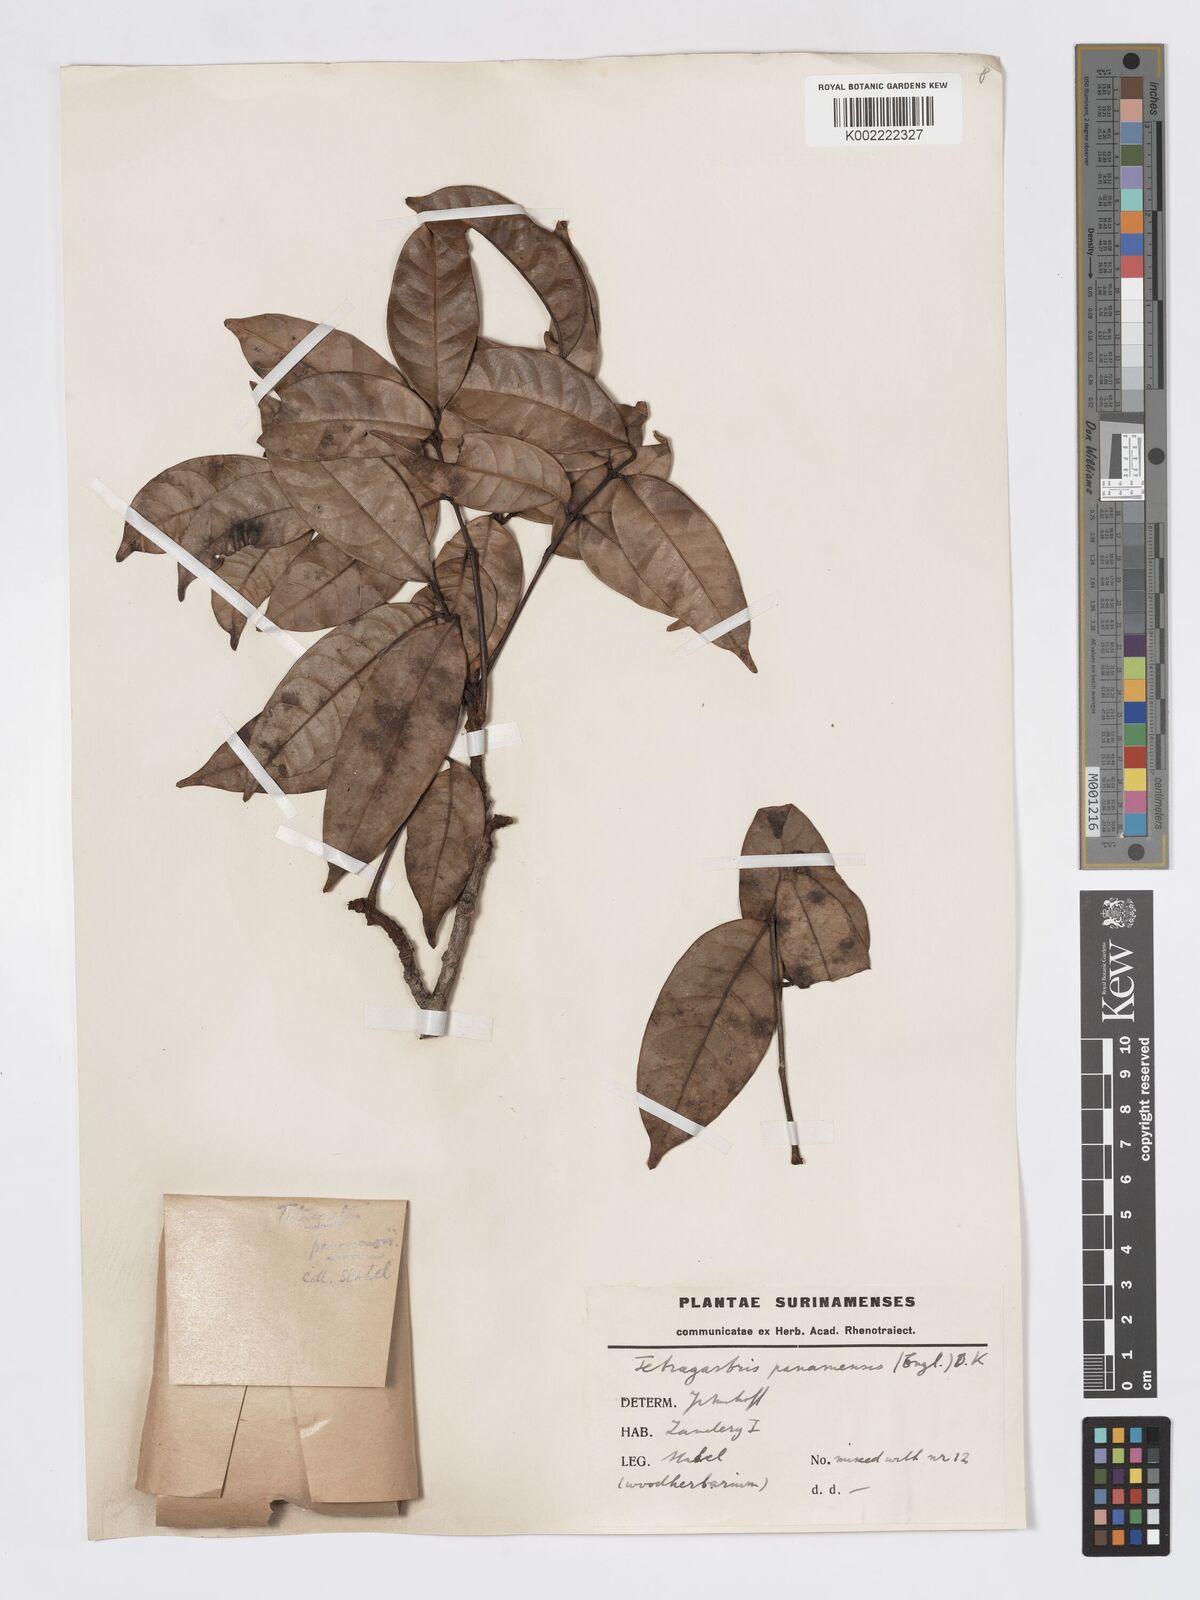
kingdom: Plantae
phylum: Tracheophyta
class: Magnoliopsida
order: Sapindales
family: Burseraceae
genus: Tetragastris
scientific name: Tetragastris panamensis
